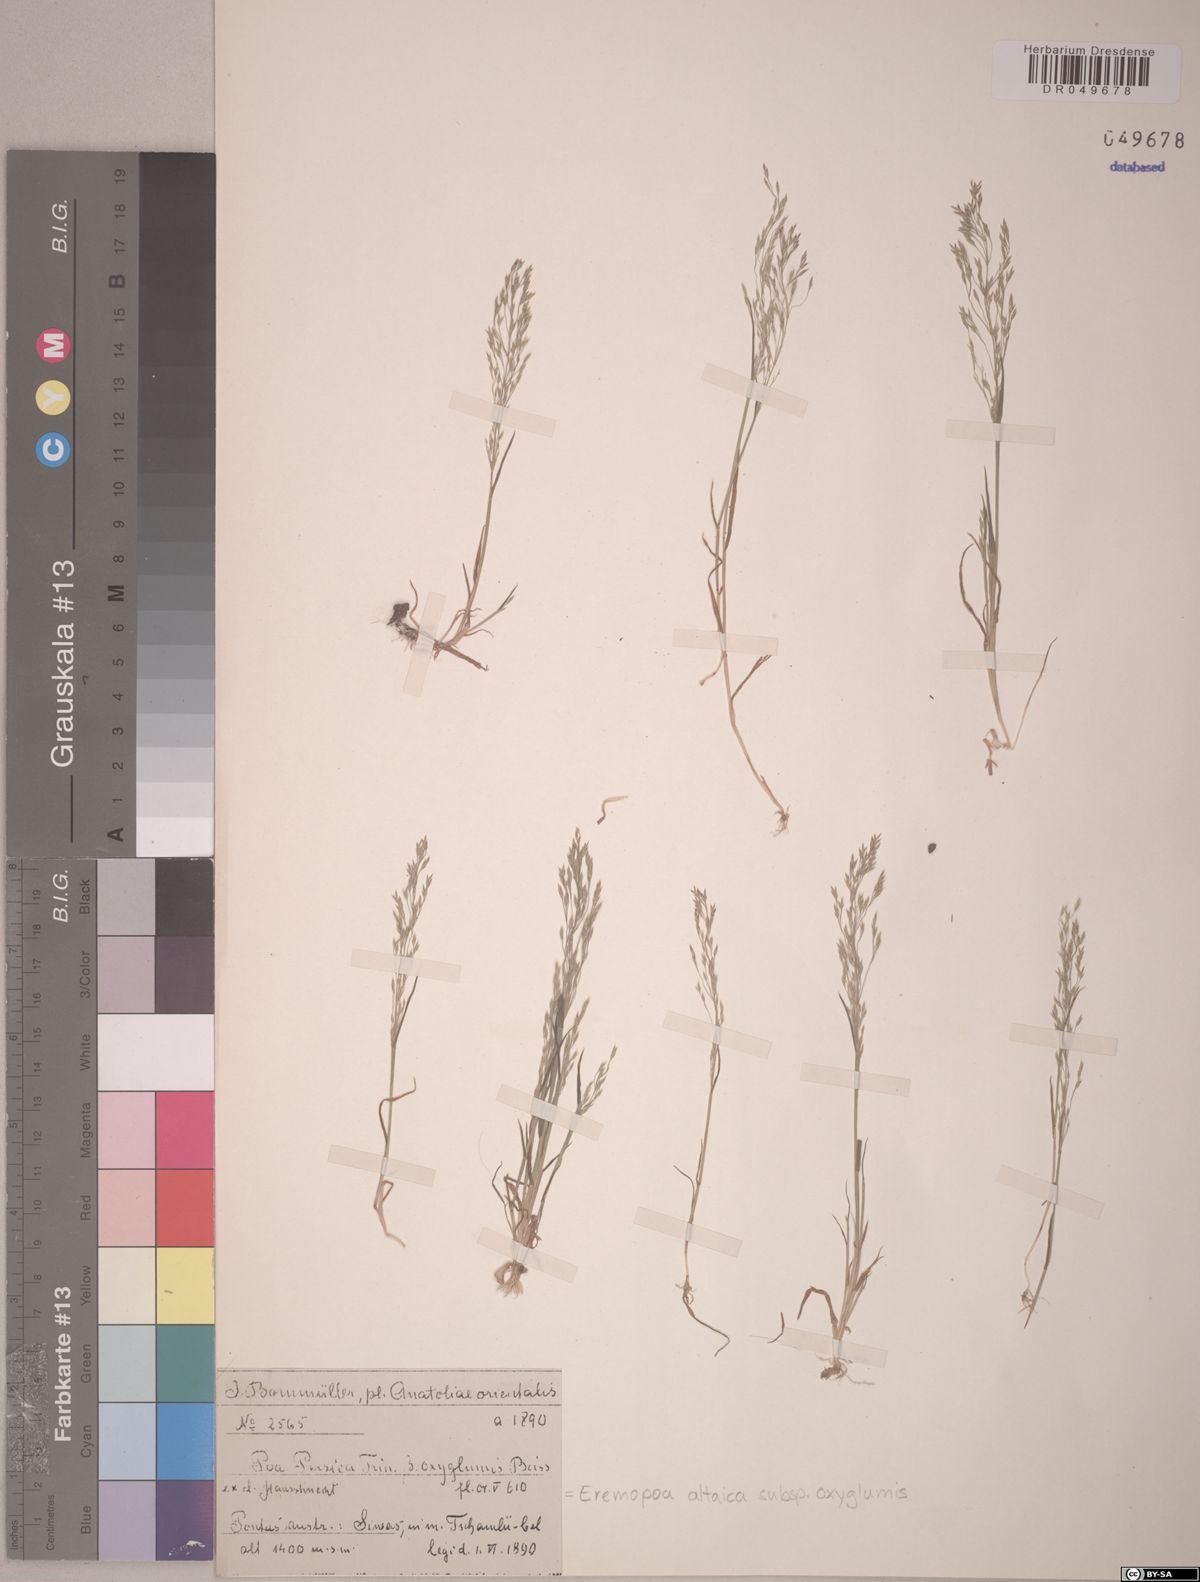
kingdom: Plantae
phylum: Tracheophyta
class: Liliopsida
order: Poales
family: Poaceae
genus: Poa
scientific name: Poa diaphora
